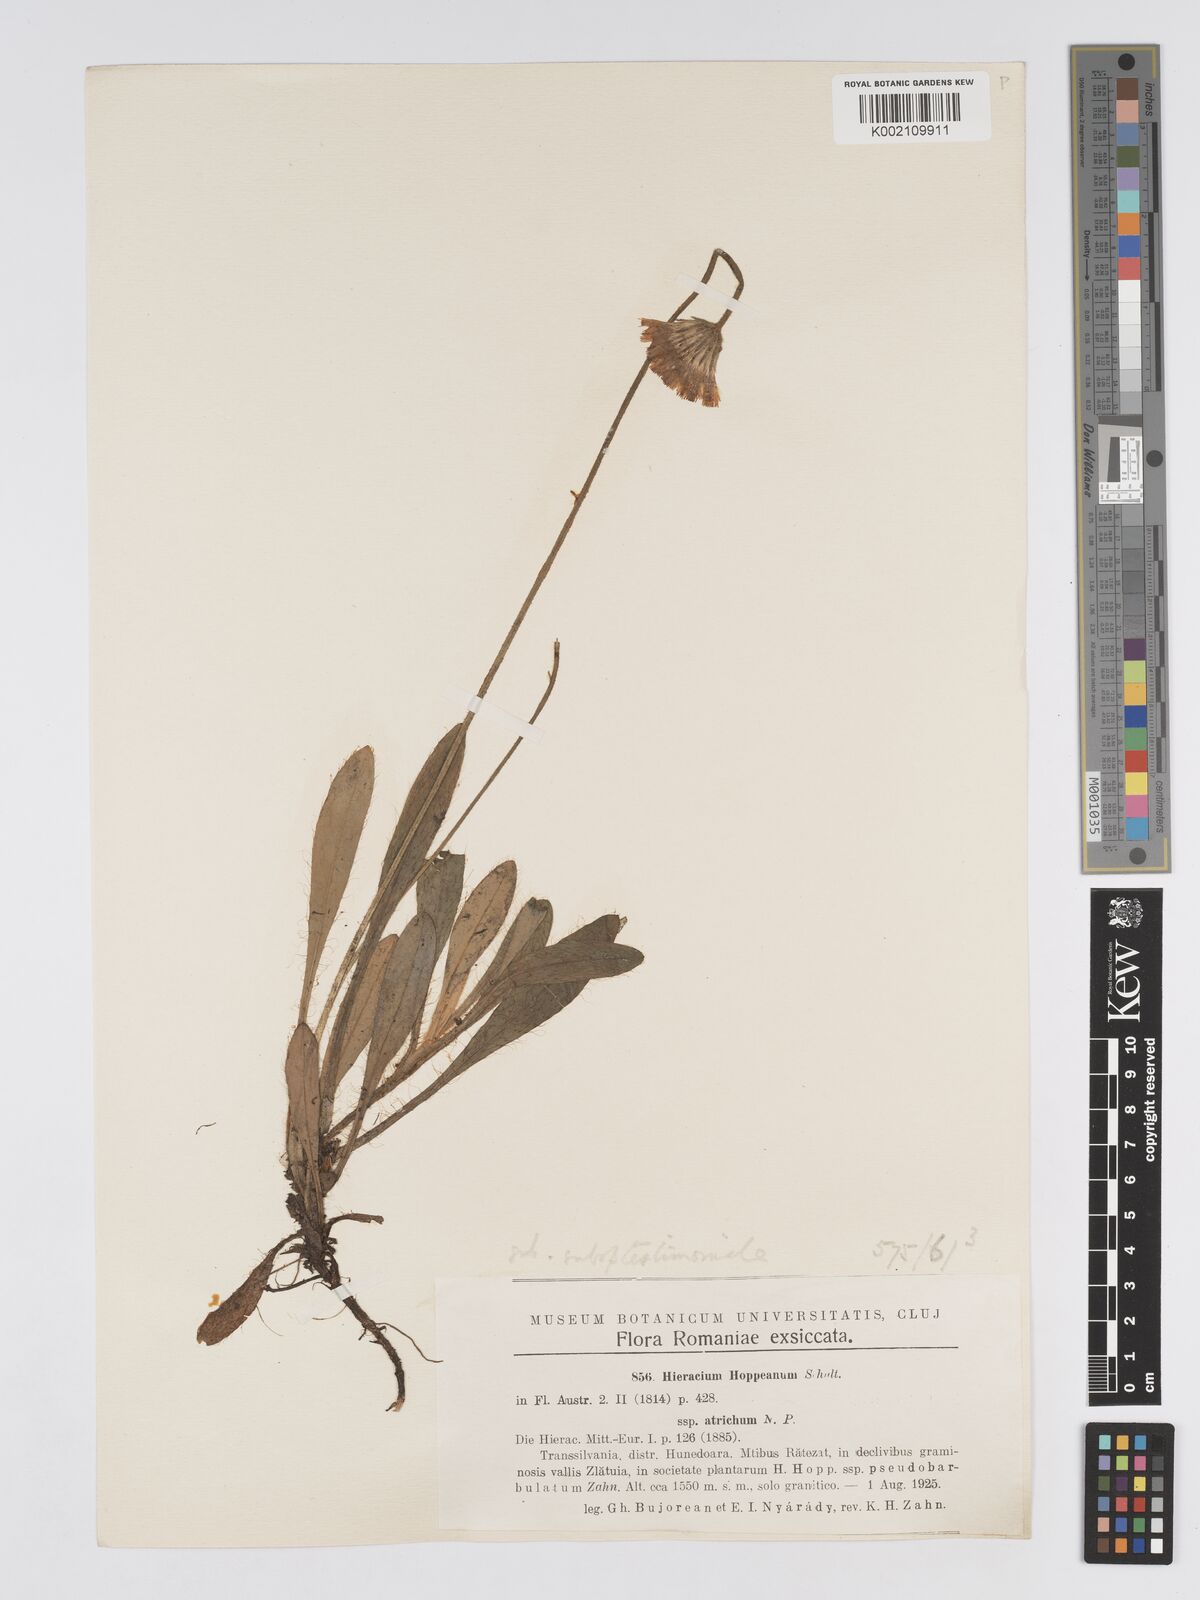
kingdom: Plantae
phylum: Tracheophyta
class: Magnoliopsida
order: Asterales
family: Asteraceae
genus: Pilosella
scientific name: Pilosella hoppeana
